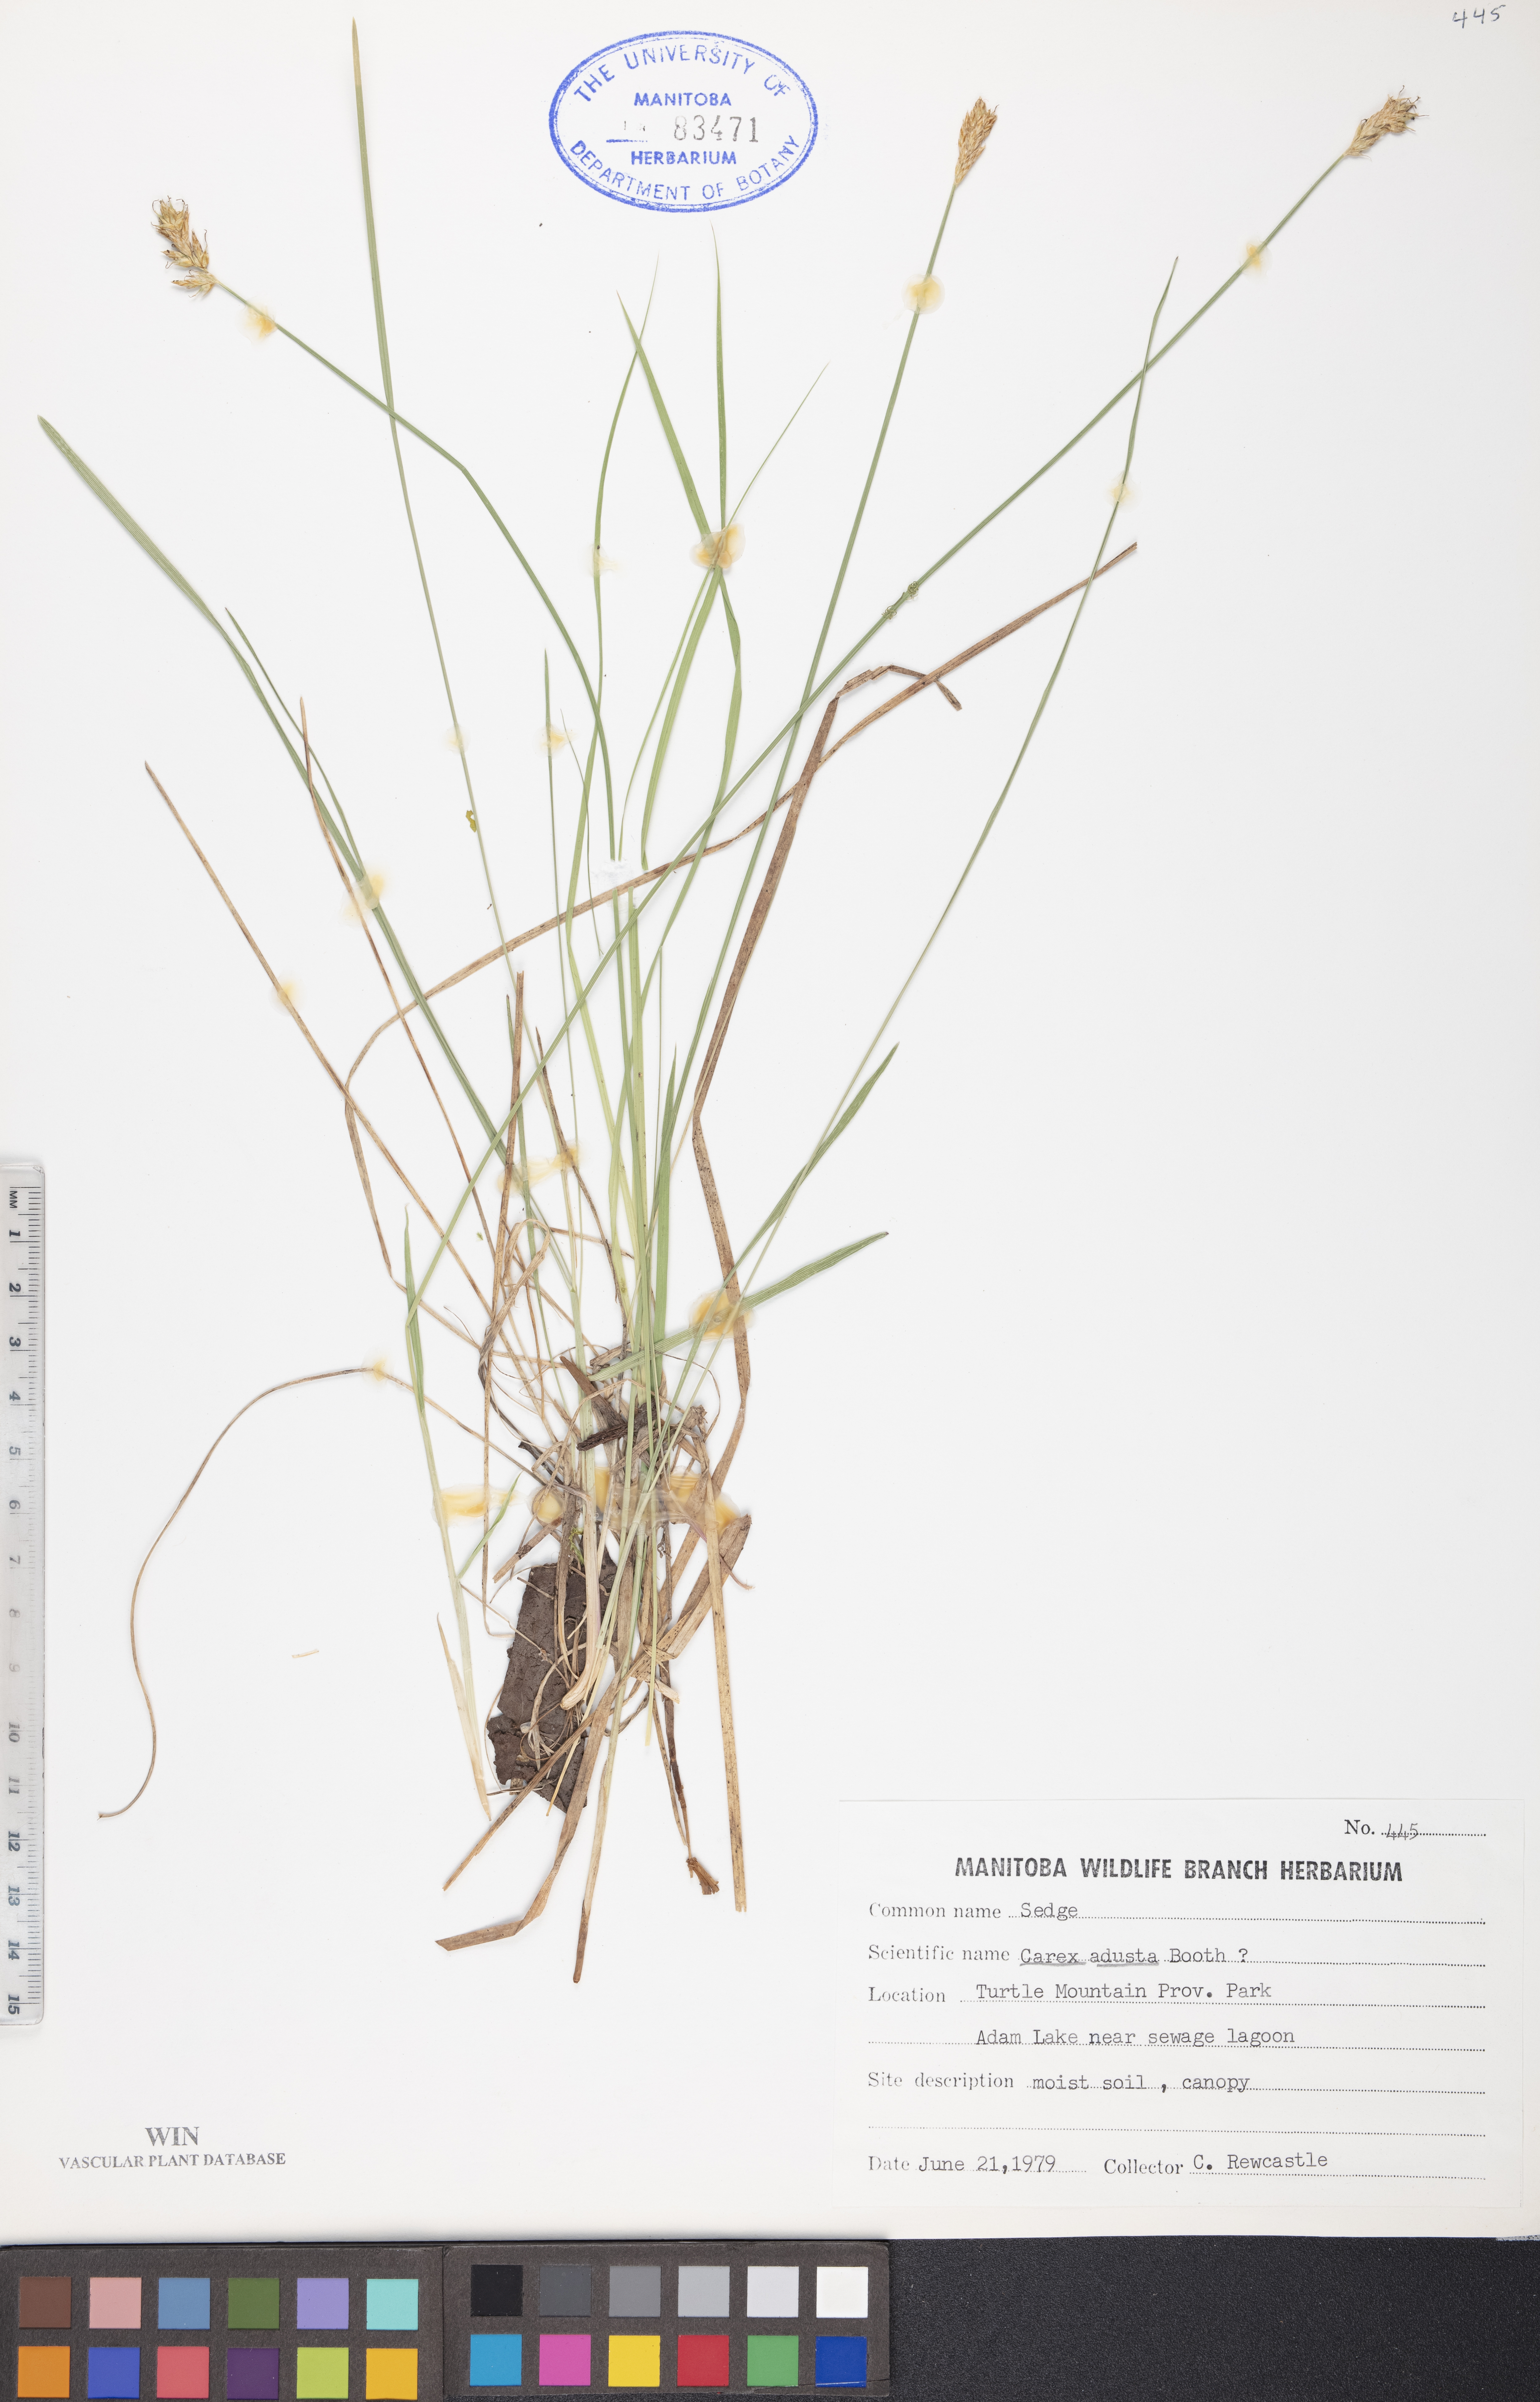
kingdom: Plantae
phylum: Tracheophyta
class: Liliopsida
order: Poales
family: Cyperaceae
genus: Carex
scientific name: Carex adusta
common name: Browned sedge
